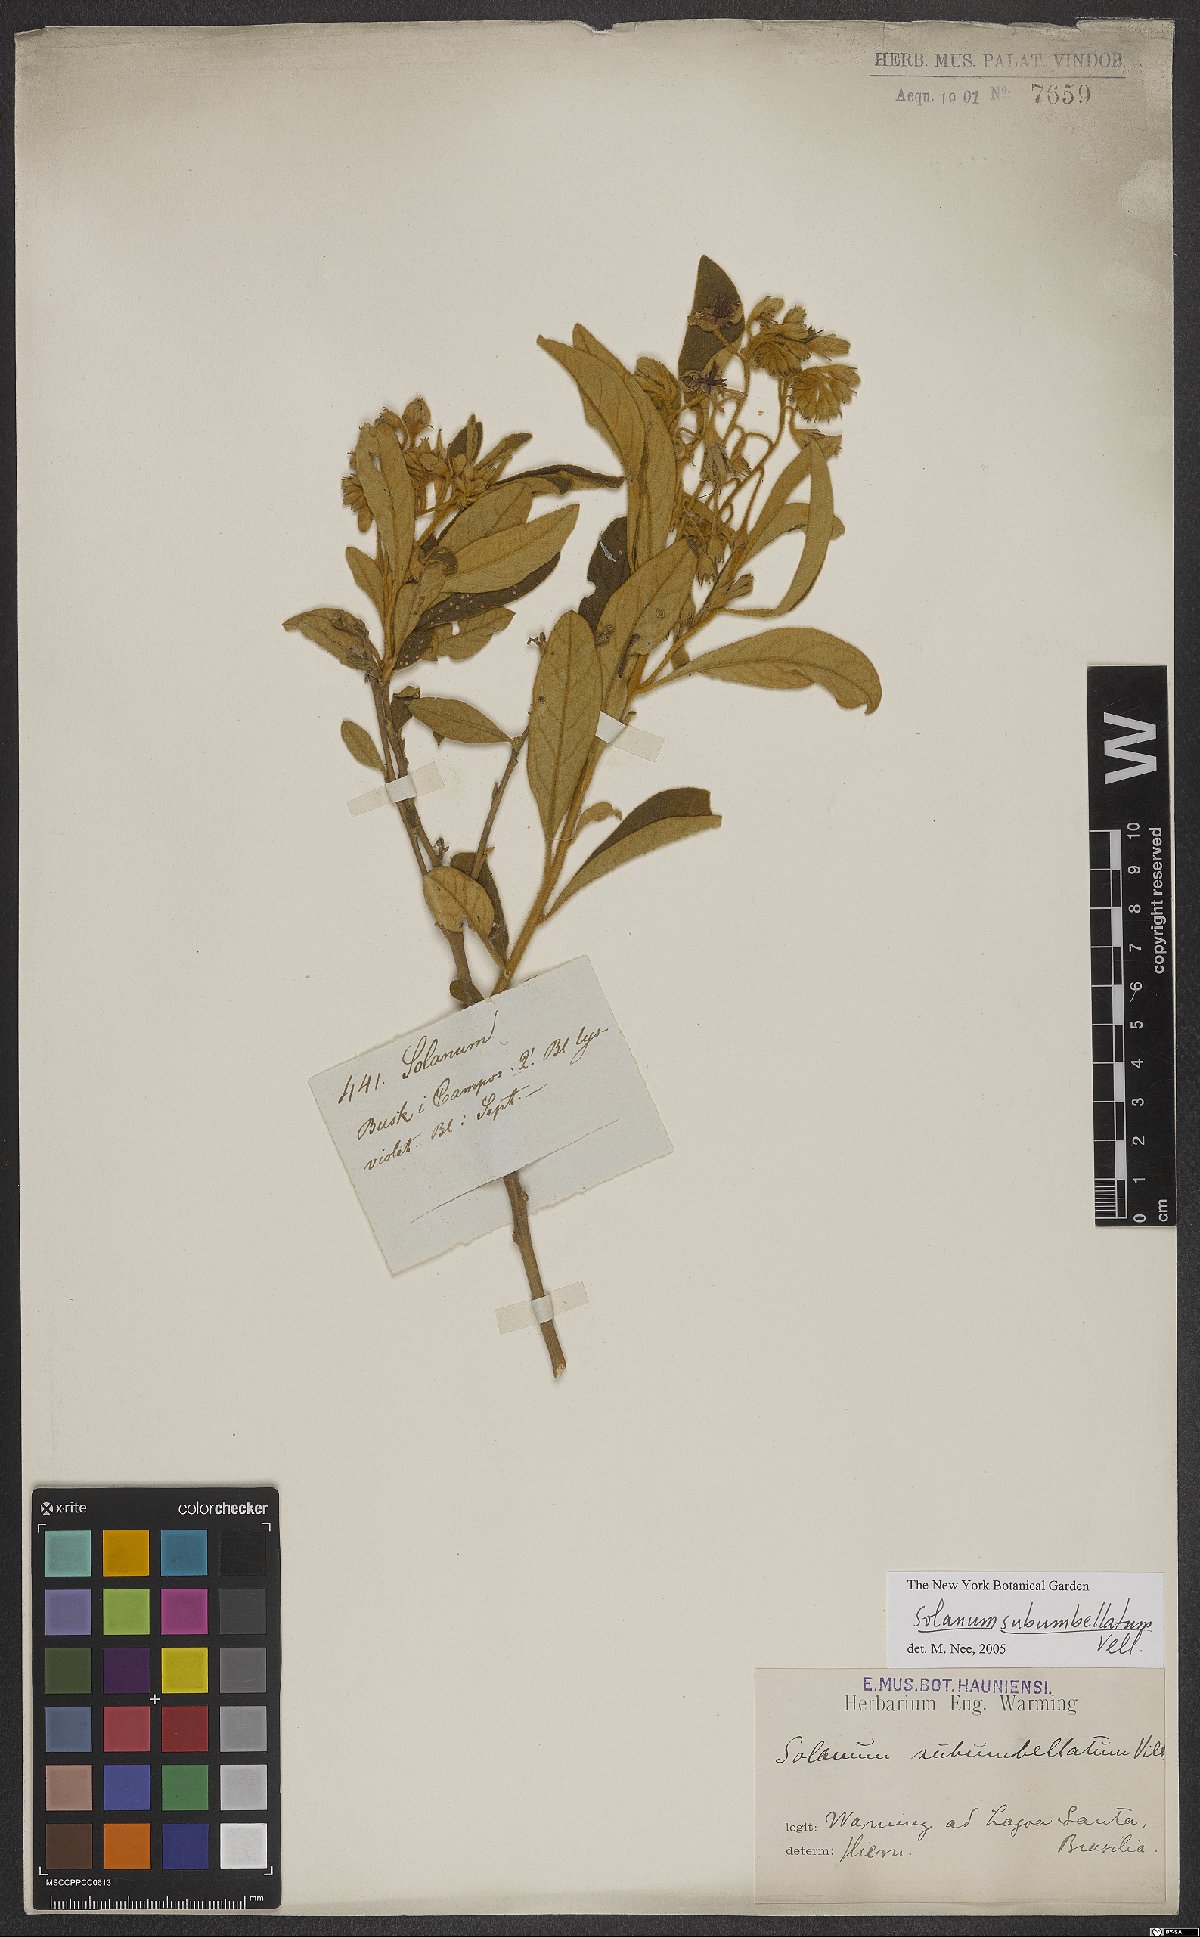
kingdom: Plantae
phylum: Tracheophyta
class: Magnoliopsida
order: Solanales
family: Solanaceae
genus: Solanum
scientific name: Solanum subumbellatum
